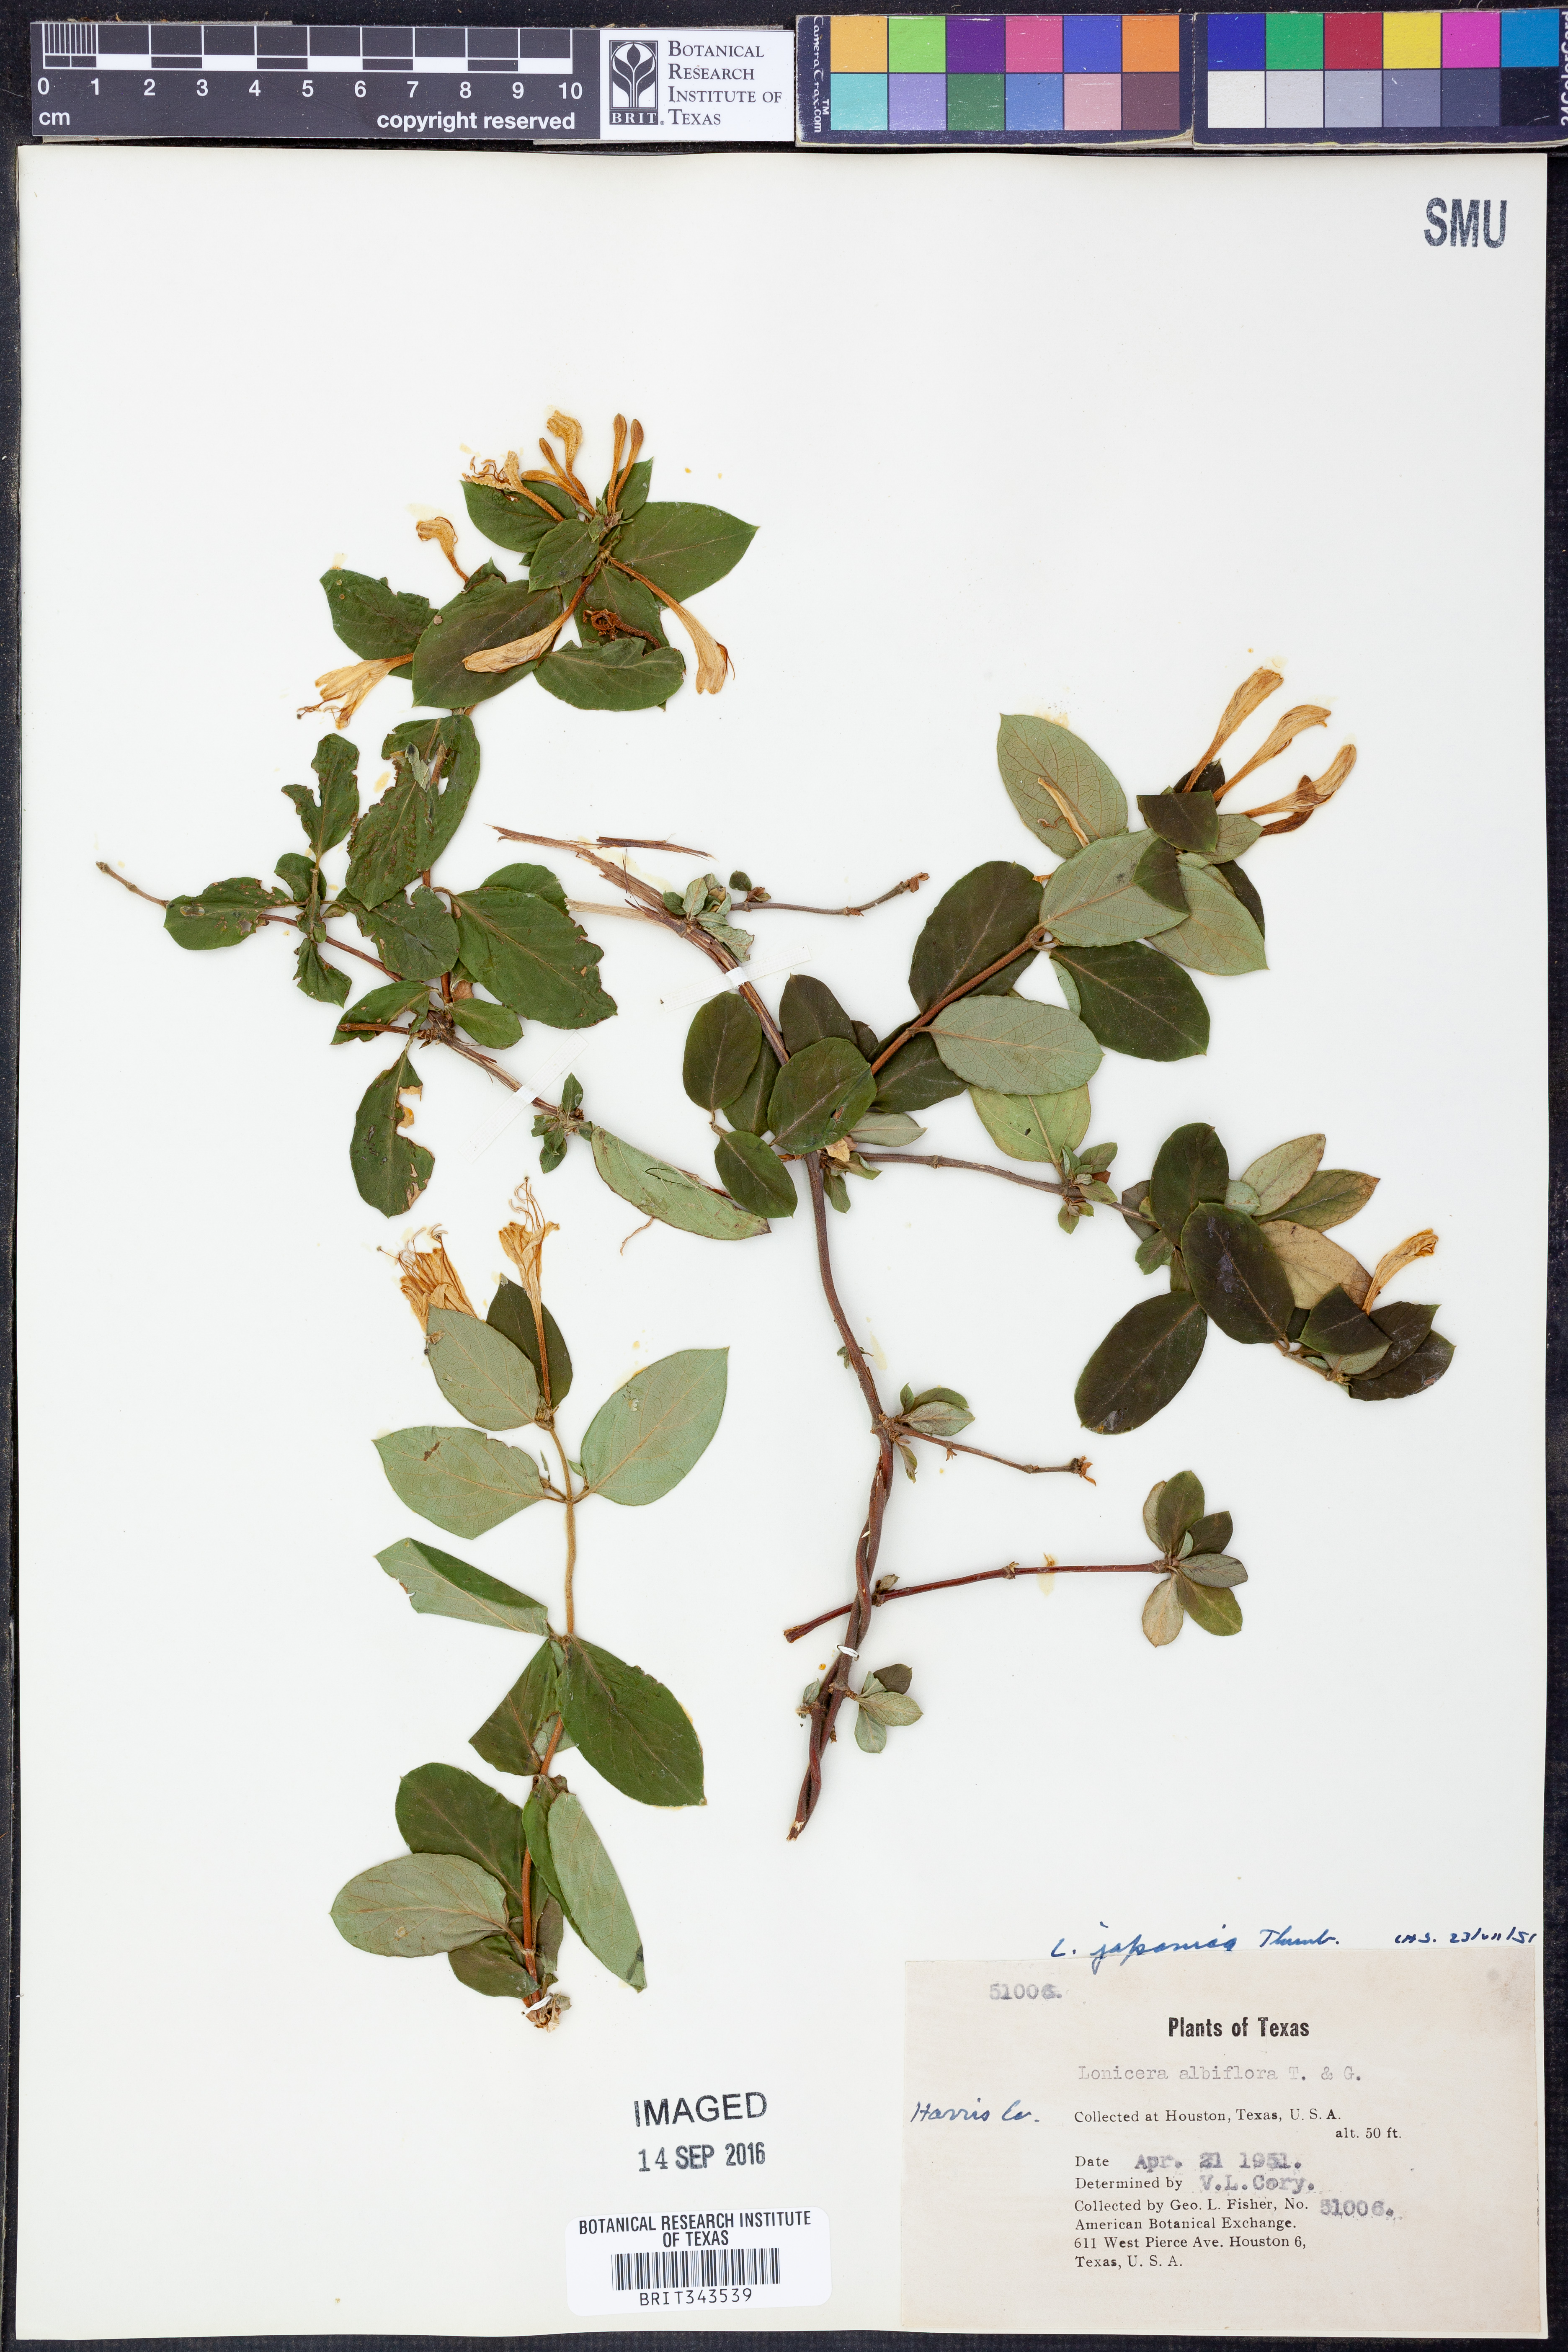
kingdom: Plantae
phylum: Tracheophyta
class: Magnoliopsida
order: Dipsacales
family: Caprifoliaceae
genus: Lonicera
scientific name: Lonicera japonica
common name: Japanese honeysuckle
